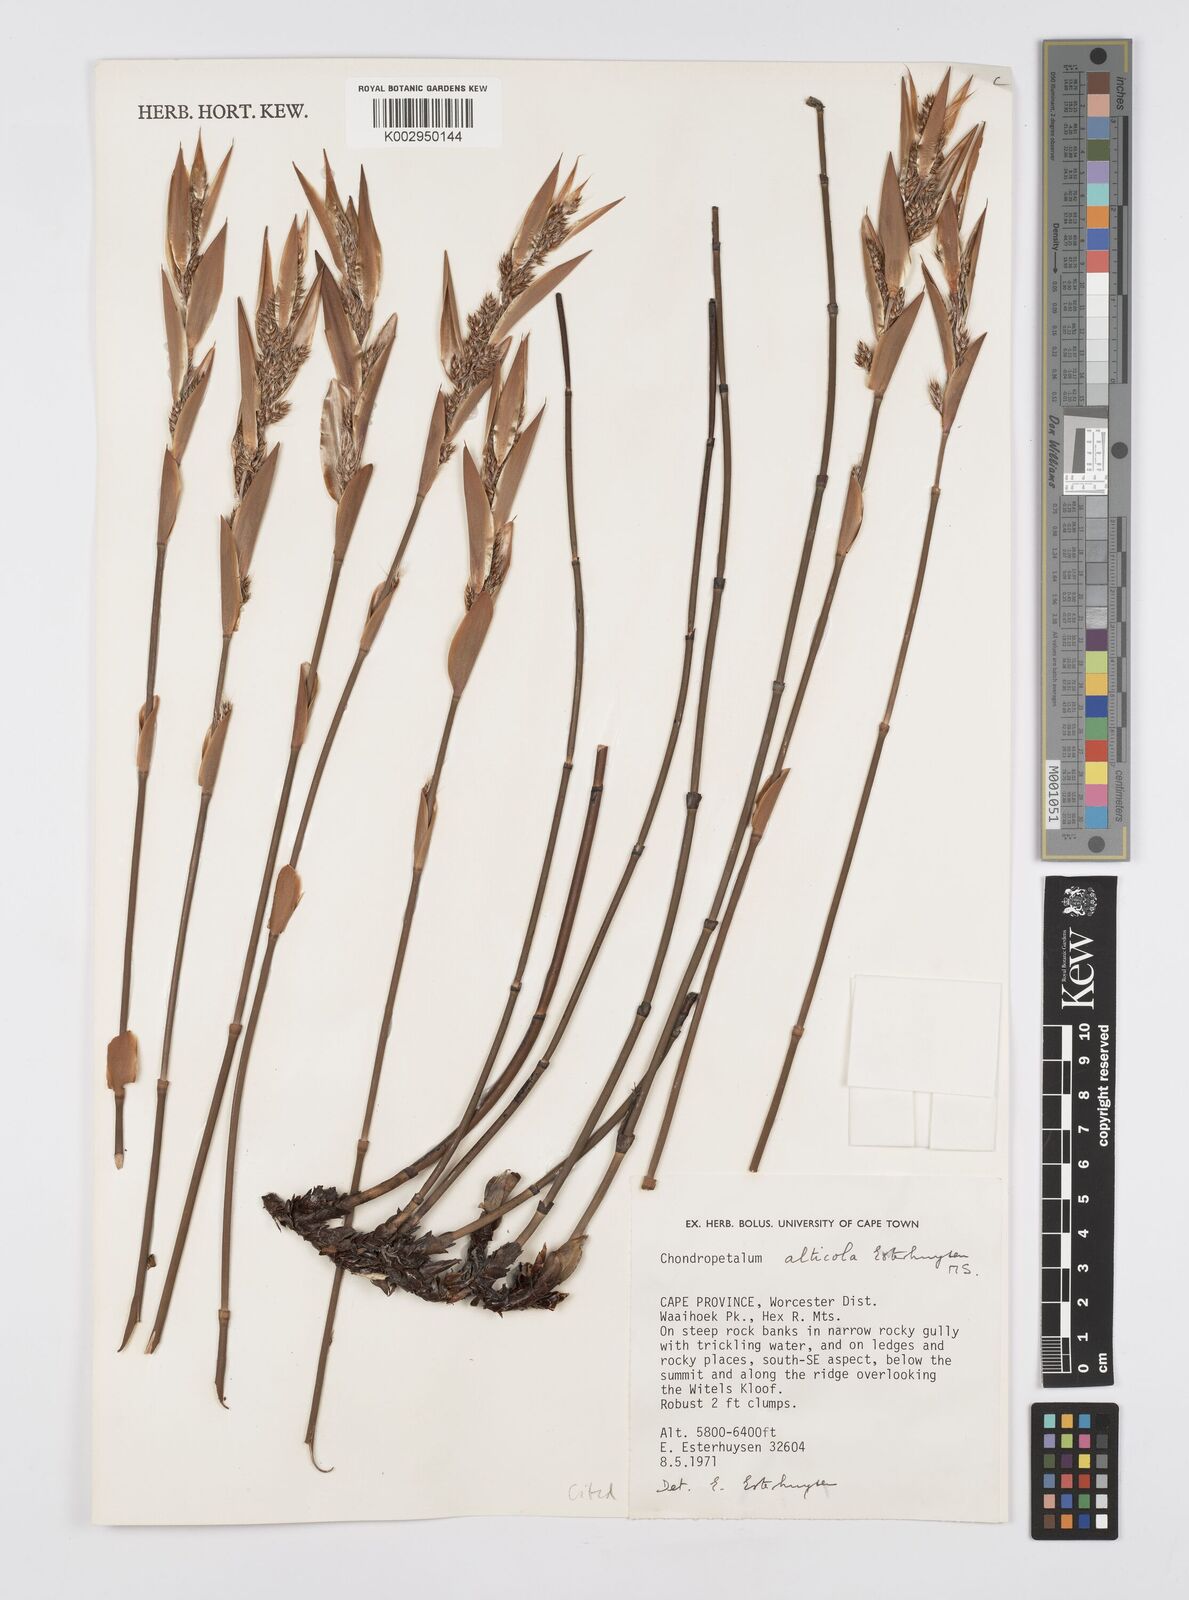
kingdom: Plantae
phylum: Tracheophyta
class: Liliopsida
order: Poales
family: Restionaceae
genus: Askidiosperma
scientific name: Askidiosperma alticola
